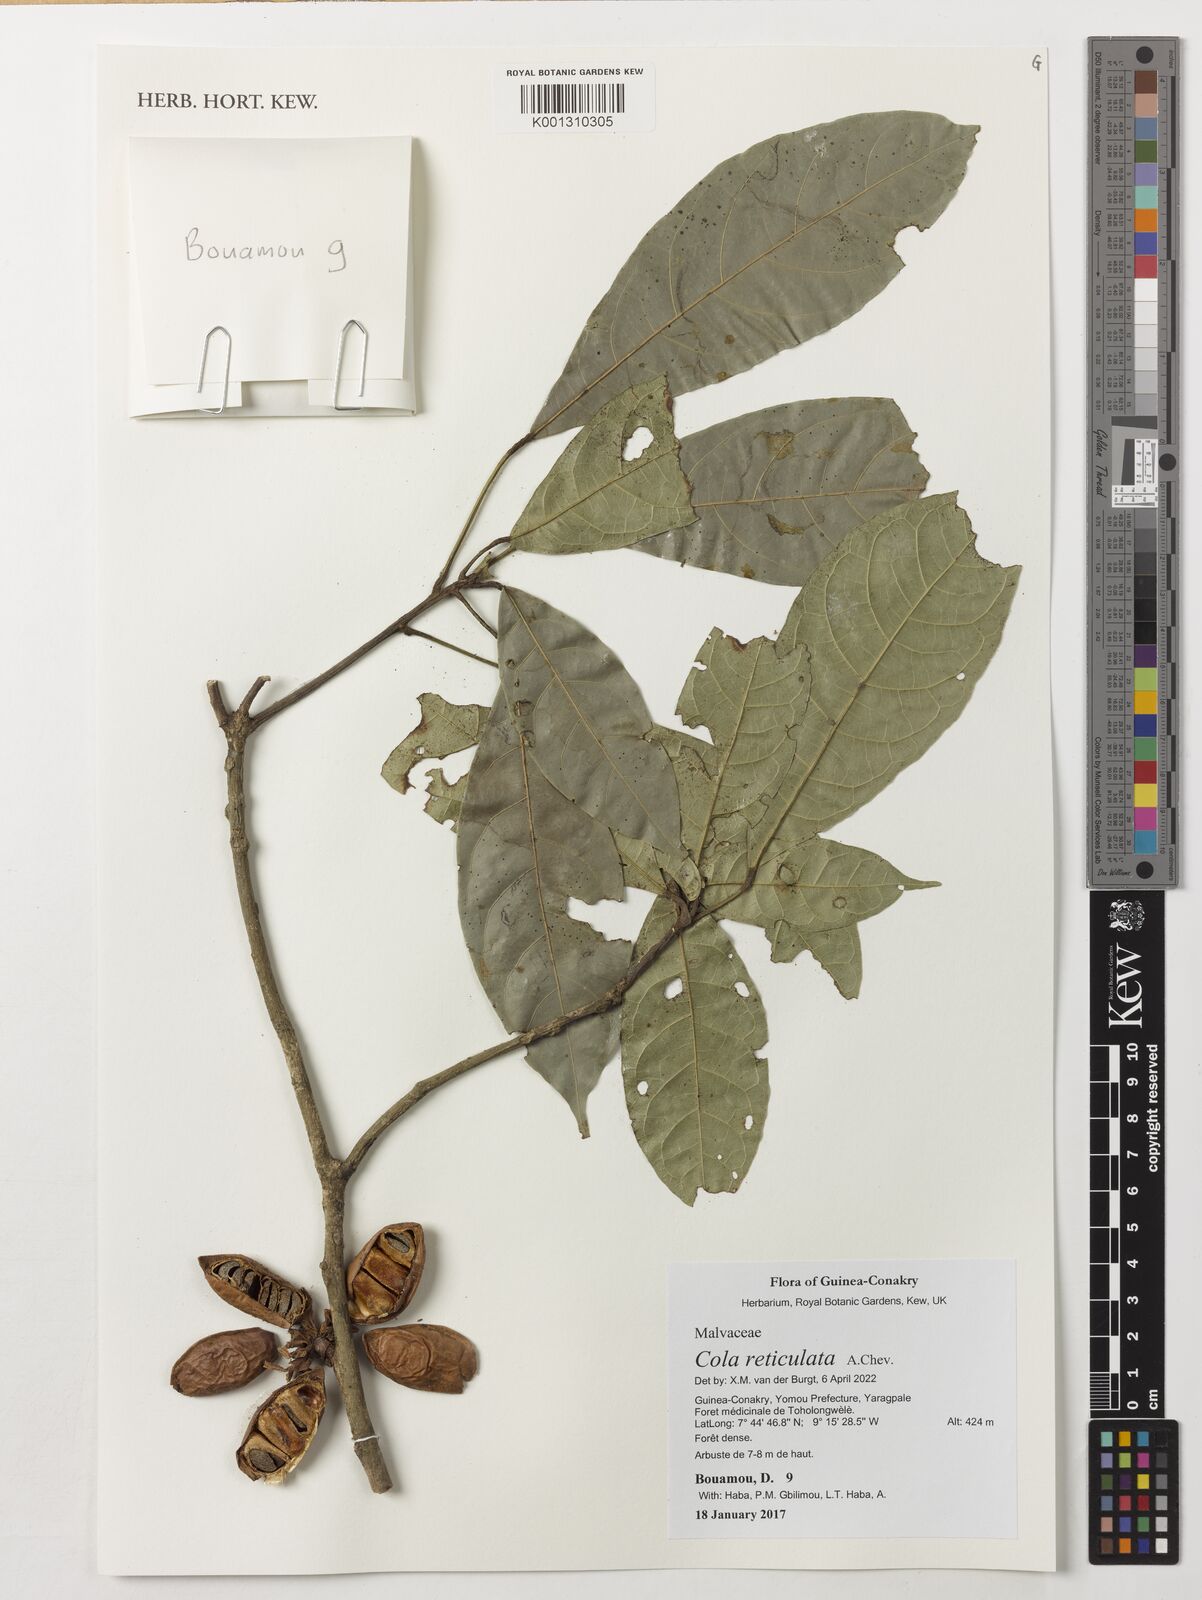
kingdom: Plantae
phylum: Tracheophyta
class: Magnoliopsida
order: Malvales
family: Malvaceae
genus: Cola
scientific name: Cola reticulata
